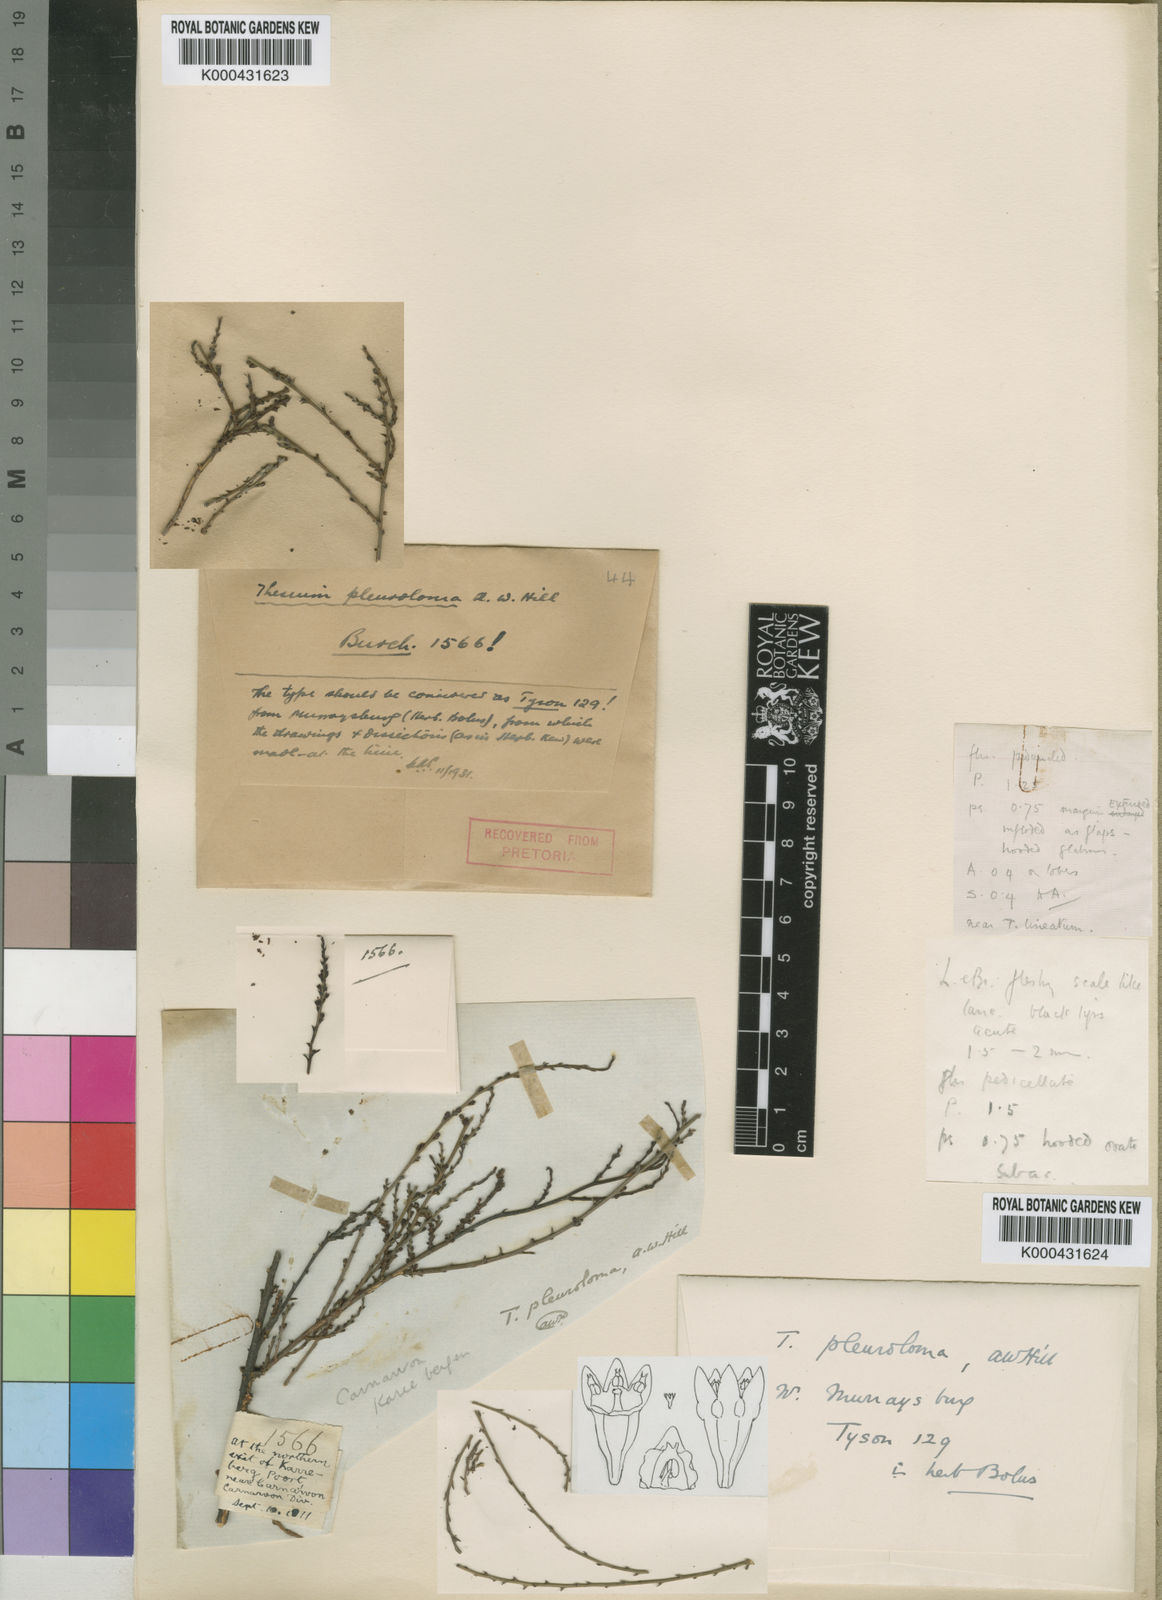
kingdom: Plantae
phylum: Tracheophyta
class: Magnoliopsida
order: Santalales
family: Thesiaceae
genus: Thesium
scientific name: Thesium pleuroloma
